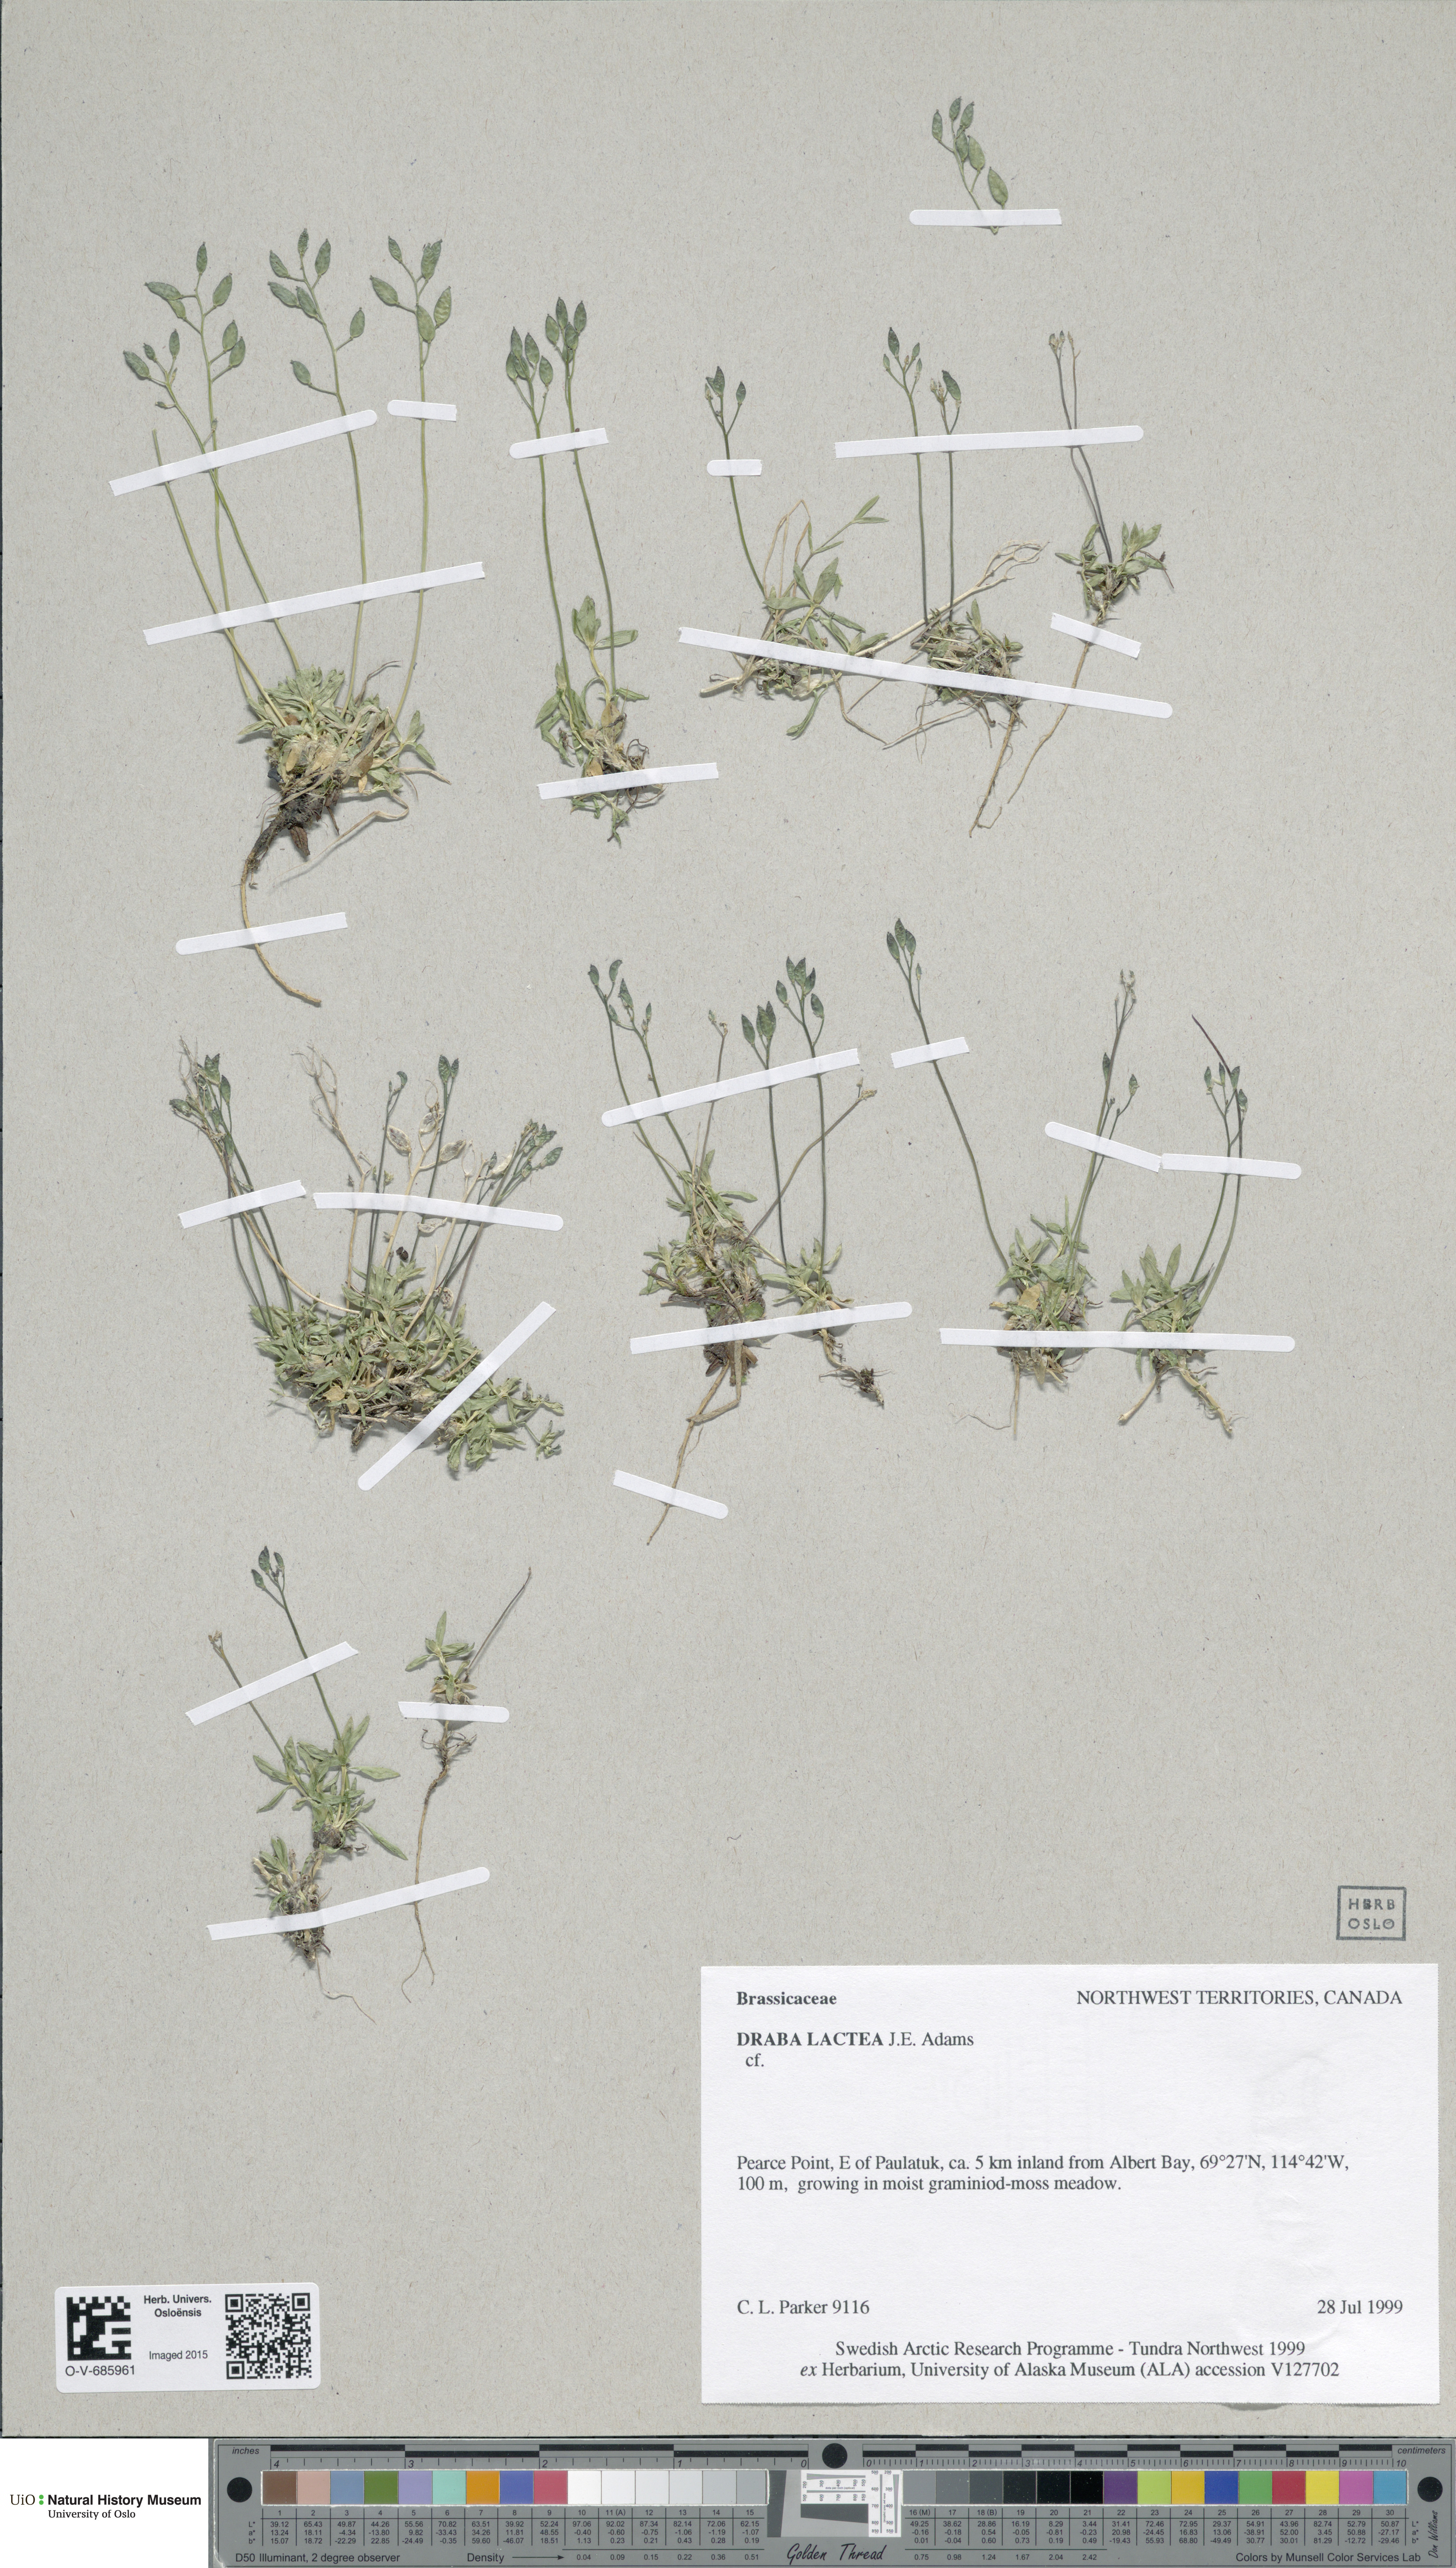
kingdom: Plantae
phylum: Tracheophyta
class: Magnoliopsida
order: Brassicales
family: Brassicaceae
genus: Draba
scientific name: Draba lactea
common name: Milky draba
